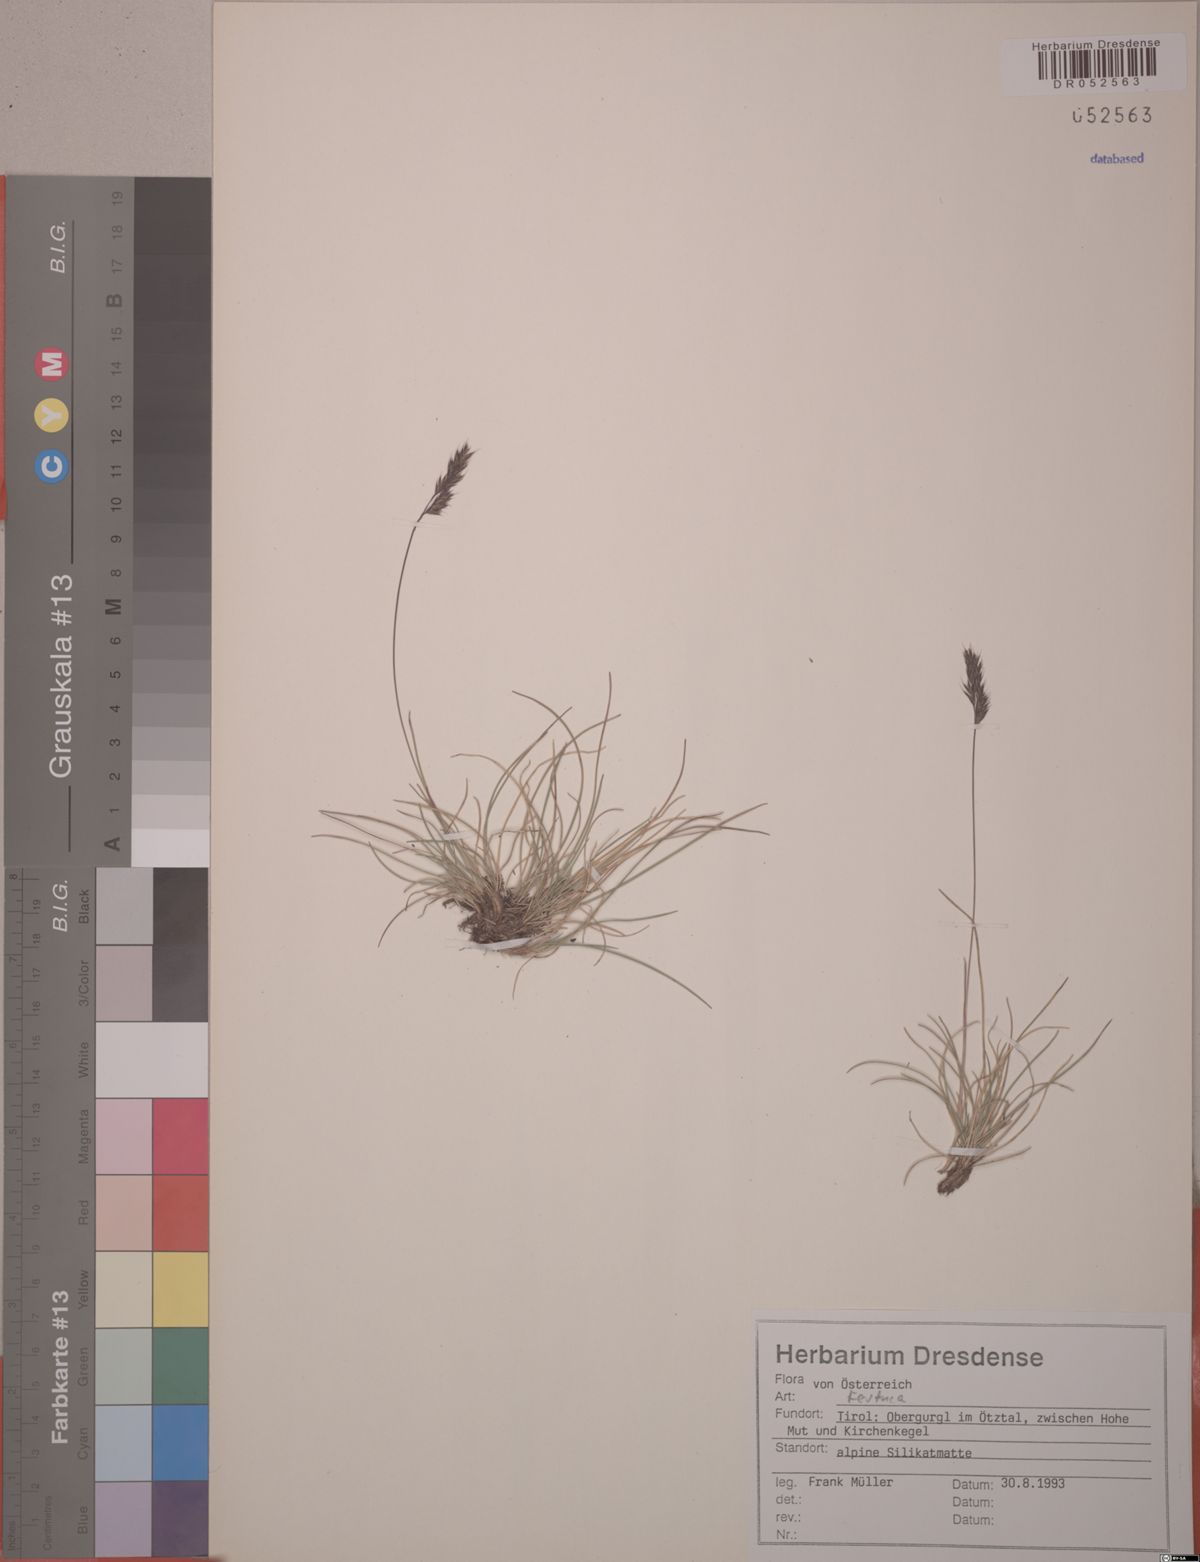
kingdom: Plantae
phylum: Tracheophyta
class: Liliopsida
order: Poales
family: Poaceae
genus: Festuca
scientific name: Festuca
